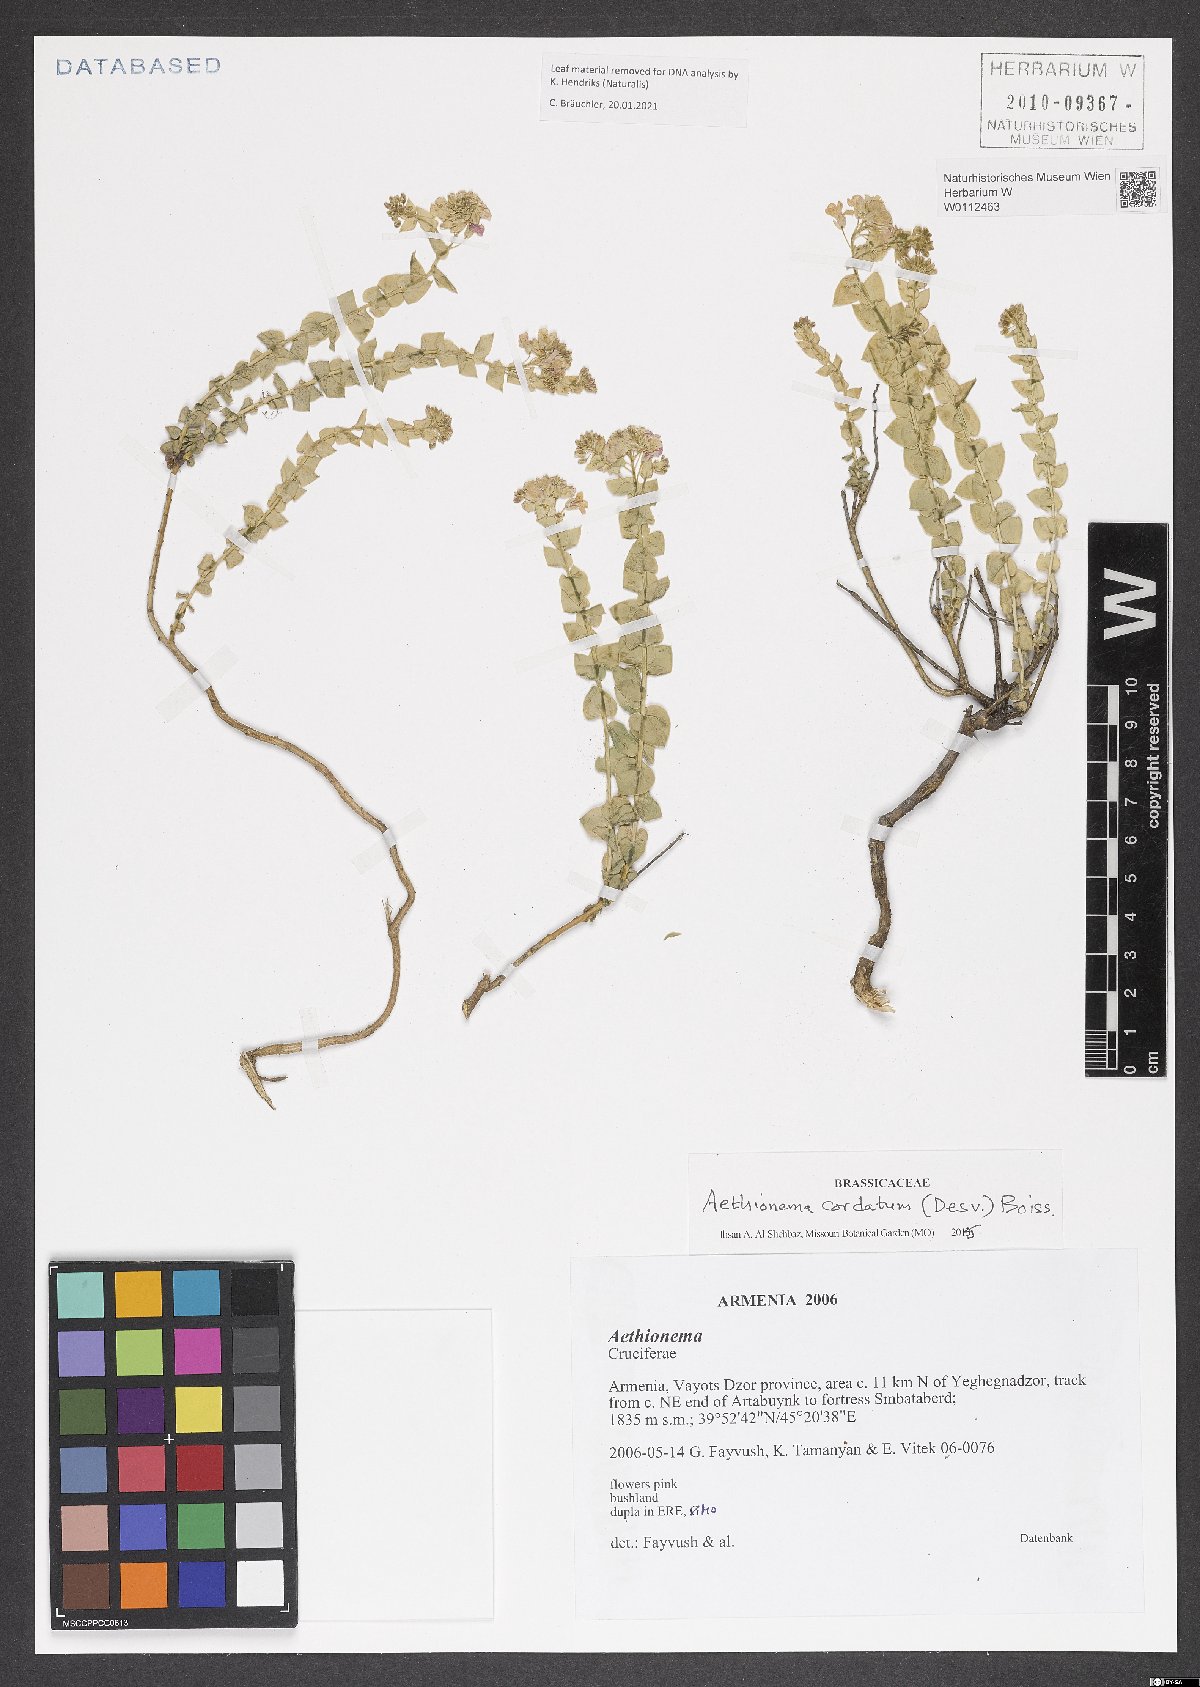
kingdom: Plantae
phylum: Tracheophyta
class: Magnoliopsida
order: Brassicales
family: Brassicaceae
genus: Aethionema
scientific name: Aethionema cordatum
